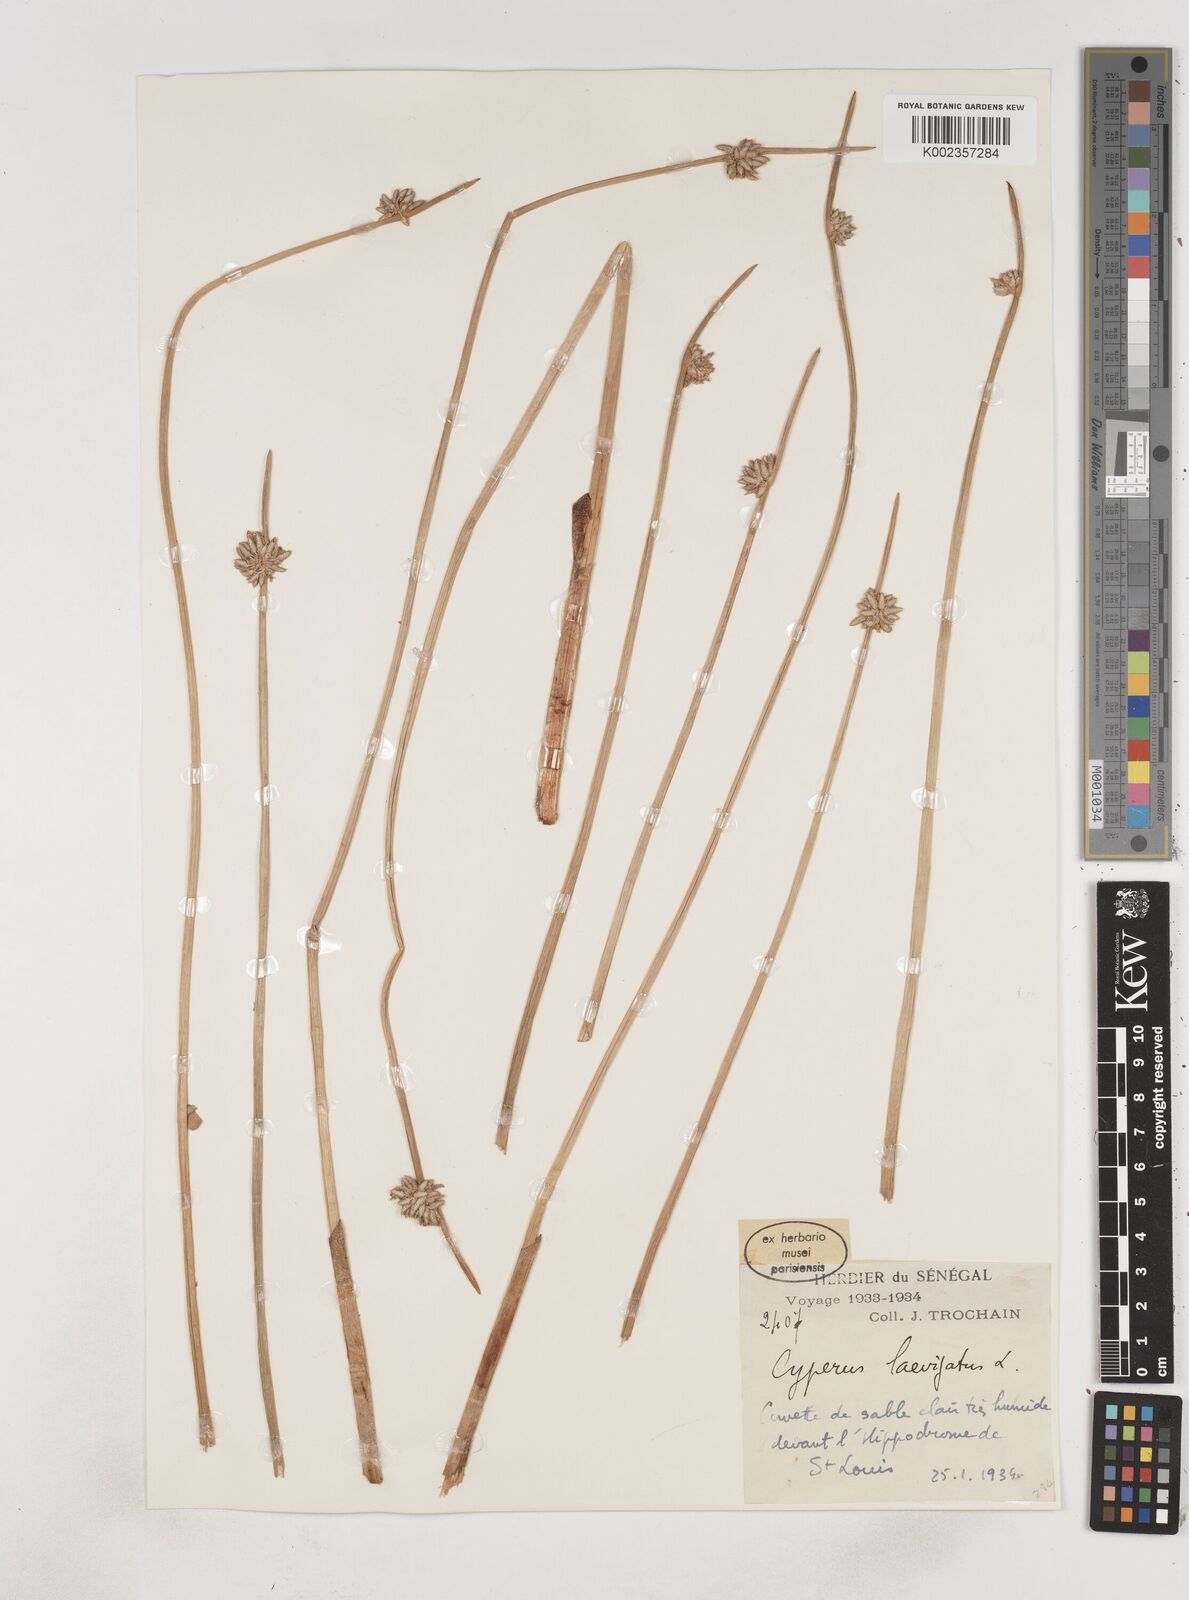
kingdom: Plantae
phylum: Tracheophyta
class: Liliopsida
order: Poales
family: Cyperaceae
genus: Cyperus
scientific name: Cyperus laevigatus
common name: Smooth flat sedge
